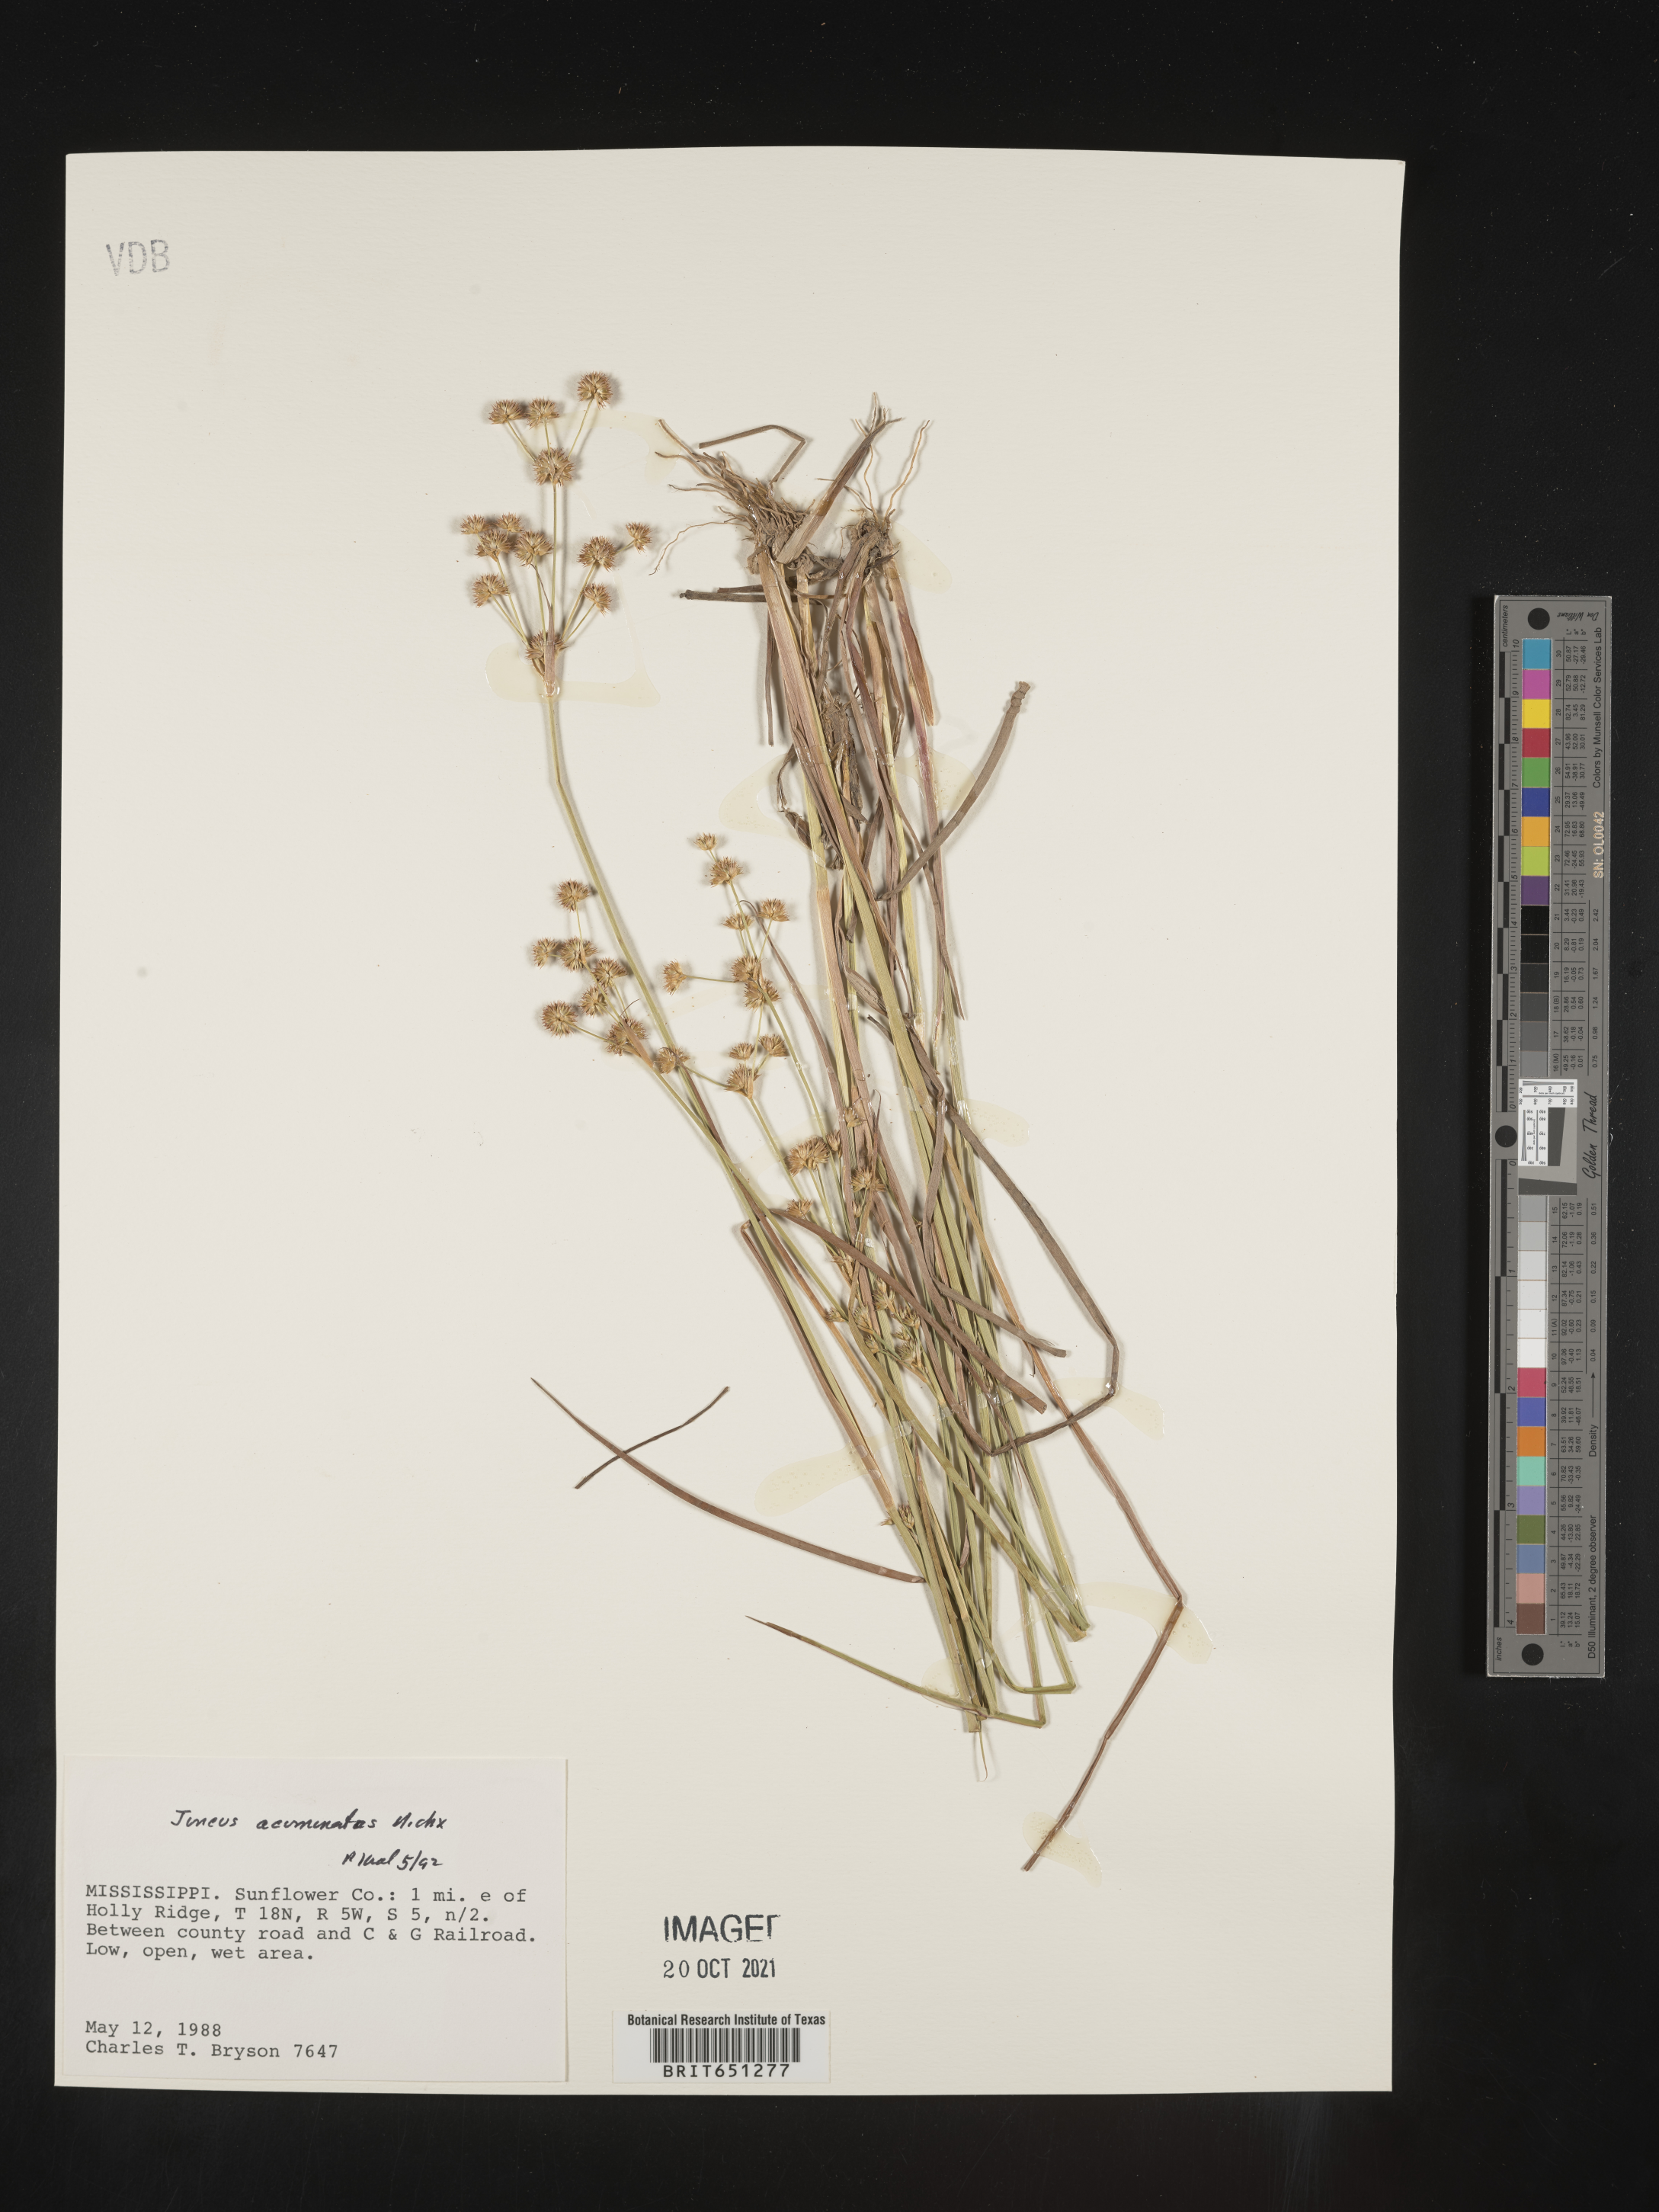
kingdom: Plantae
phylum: Tracheophyta
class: Liliopsida
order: Poales
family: Juncaceae
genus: Juncus
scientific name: Juncus acuminatus
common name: Knotty-leaved rush
